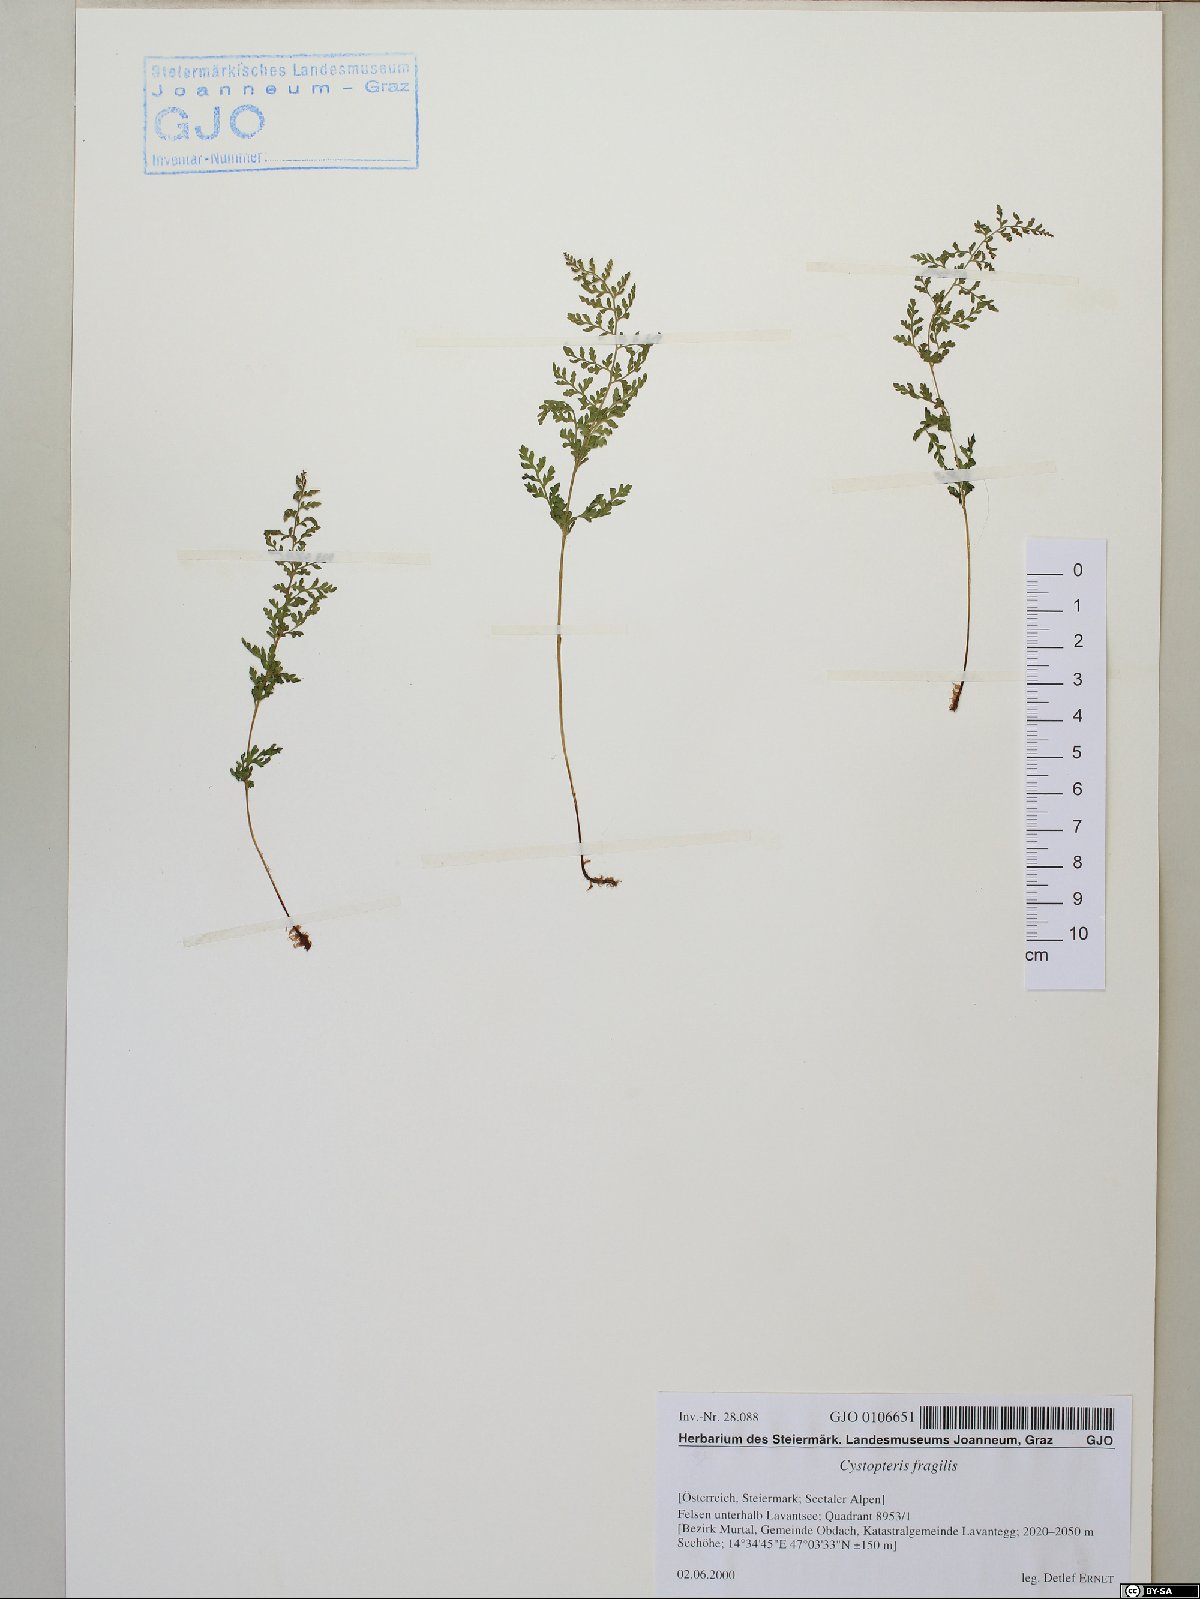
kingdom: Plantae
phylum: Tracheophyta
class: Polypodiopsida
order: Polypodiales
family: Cystopteridaceae
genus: Cystopteris
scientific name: Cystopteris fragilis
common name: Brittle bladder fern
